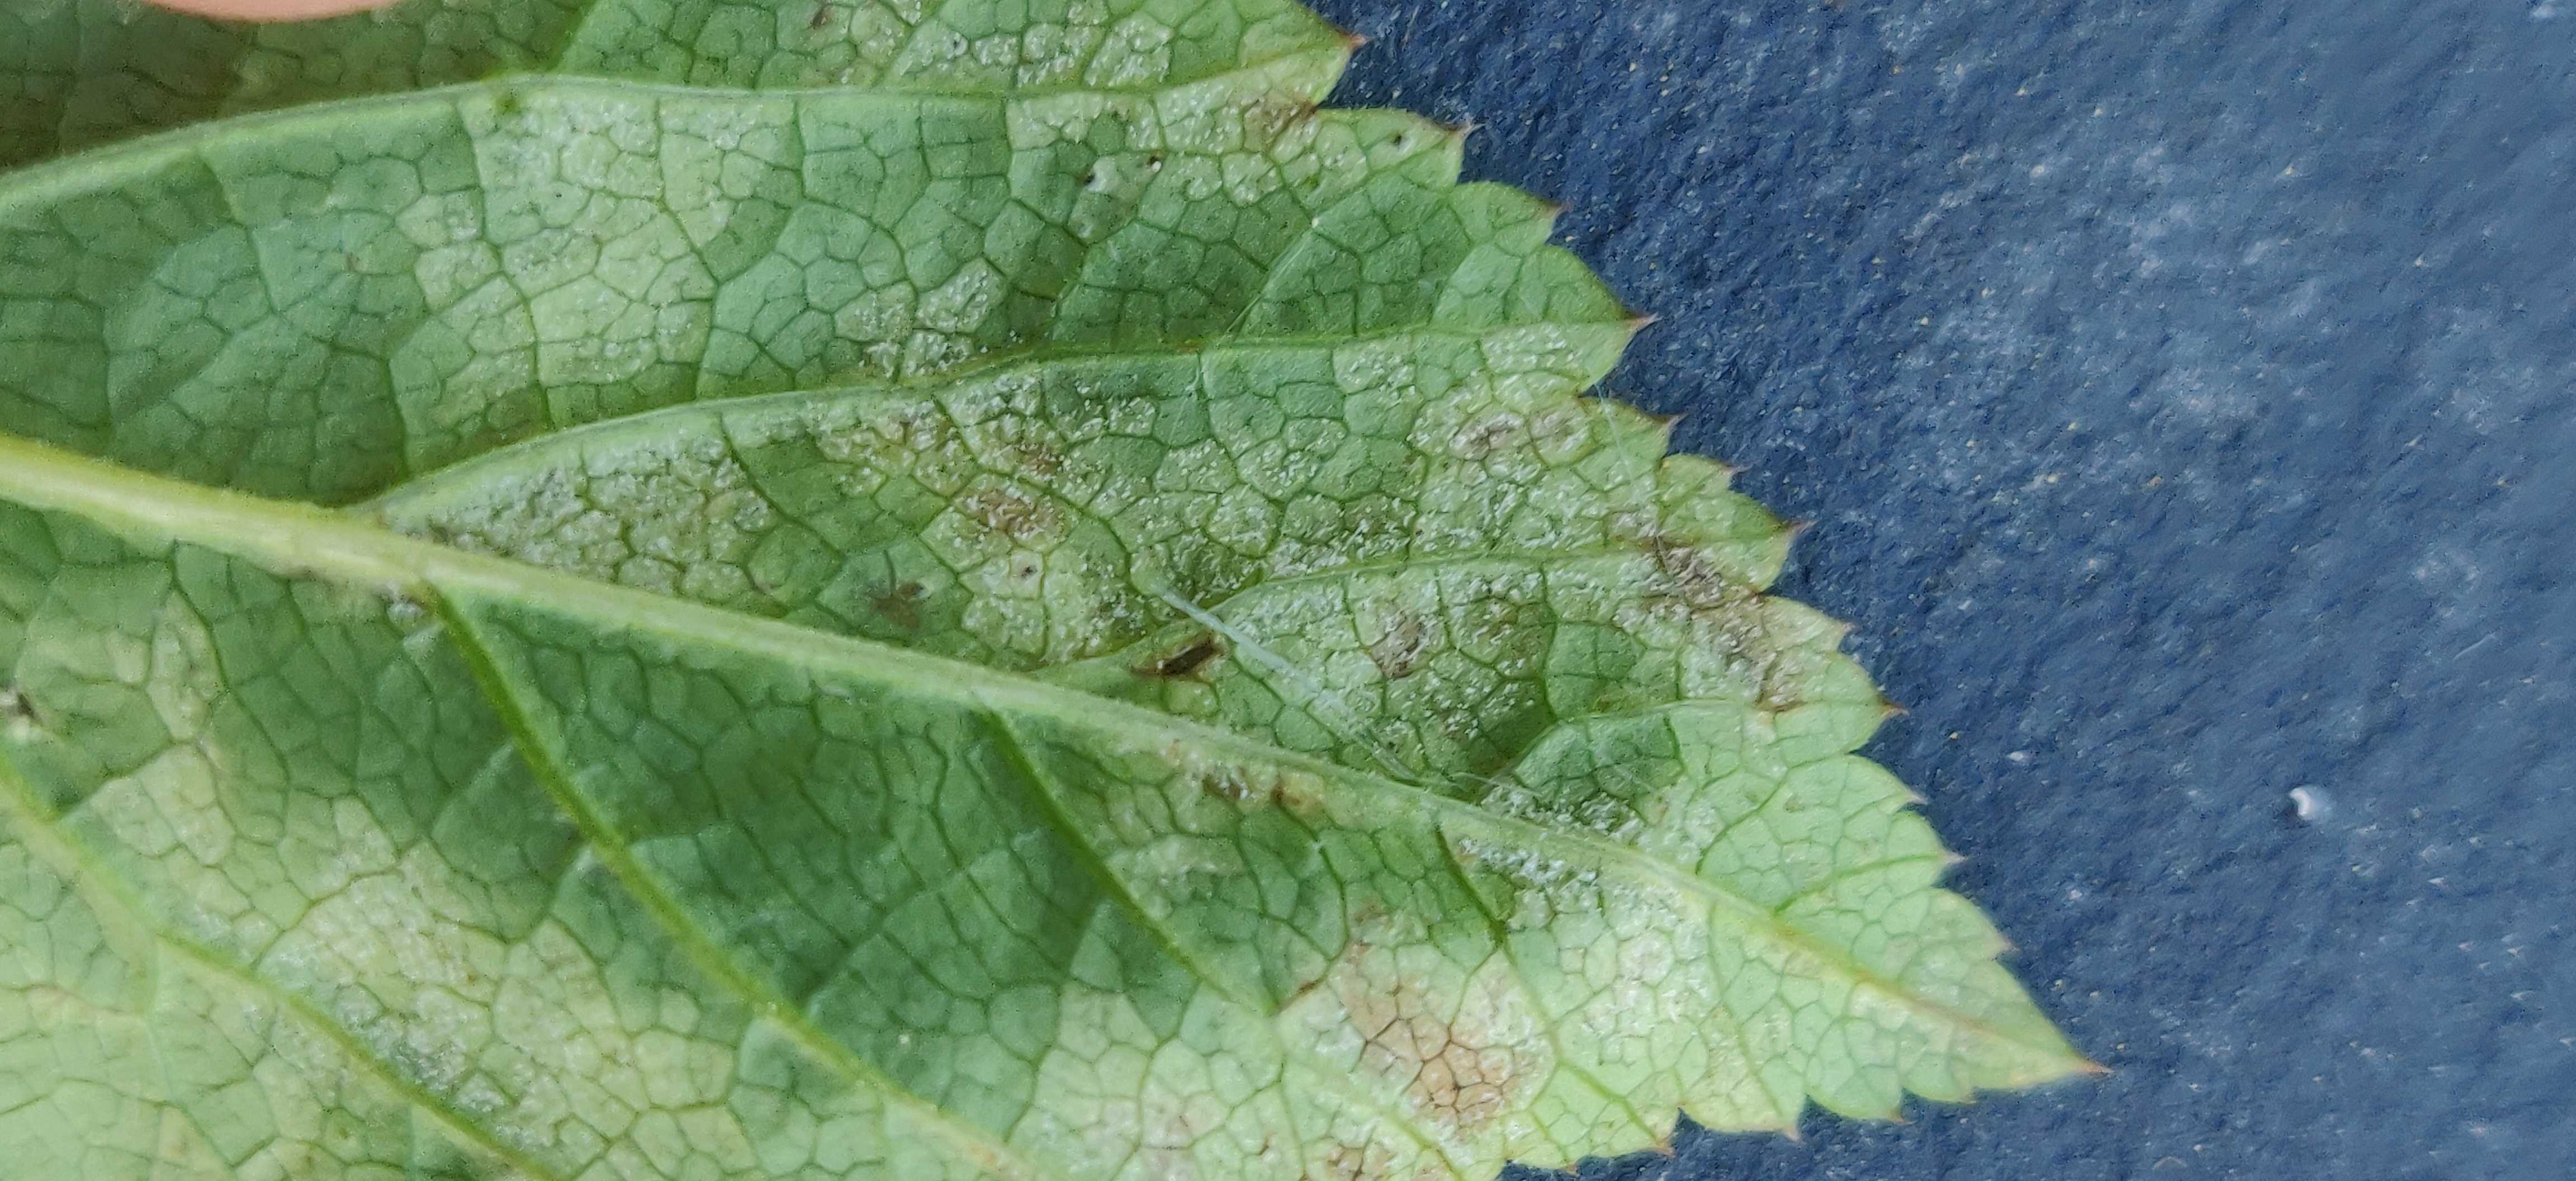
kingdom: Chromista
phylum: Oomycota
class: Peronosporea
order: Peronosporales
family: Peronosporaceae
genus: Peronospora
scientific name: Peronospora crustosa
